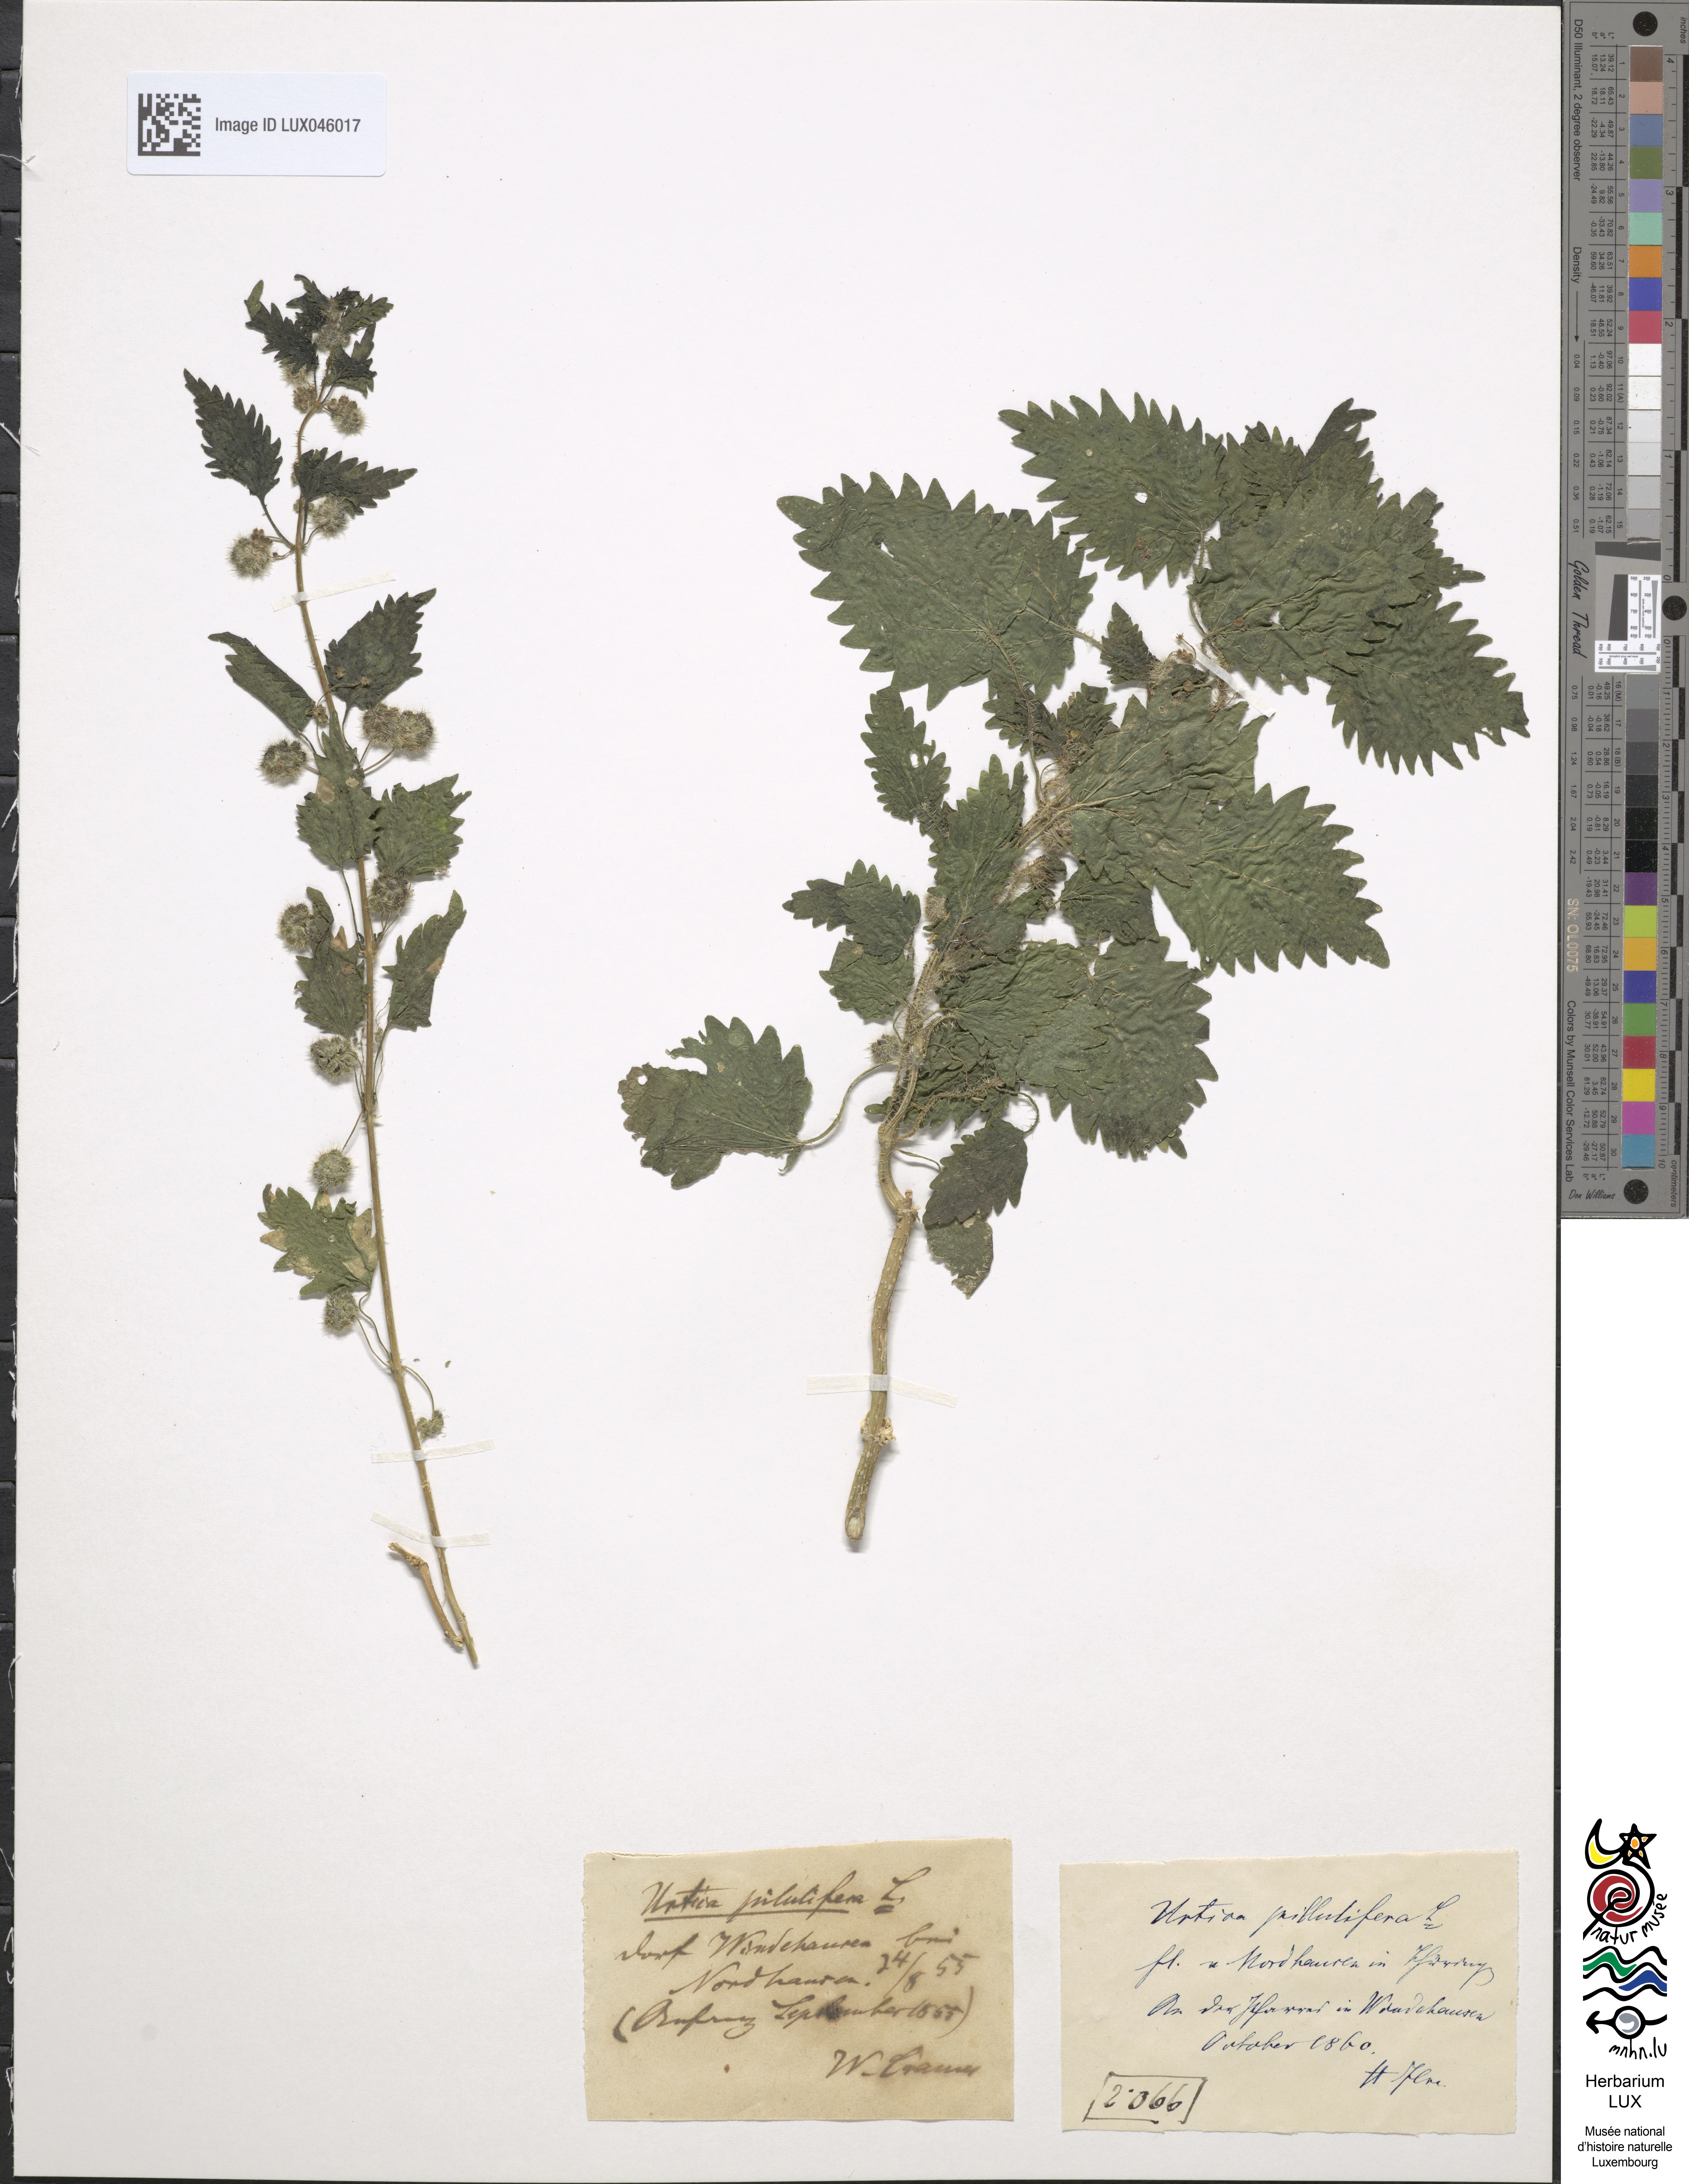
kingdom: Plantae
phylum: Tracheophyta
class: Magnoliopsida
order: Rosales
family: Urticaceae
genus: Urtica
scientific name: Urtica pilulifera
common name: Roman nettle
